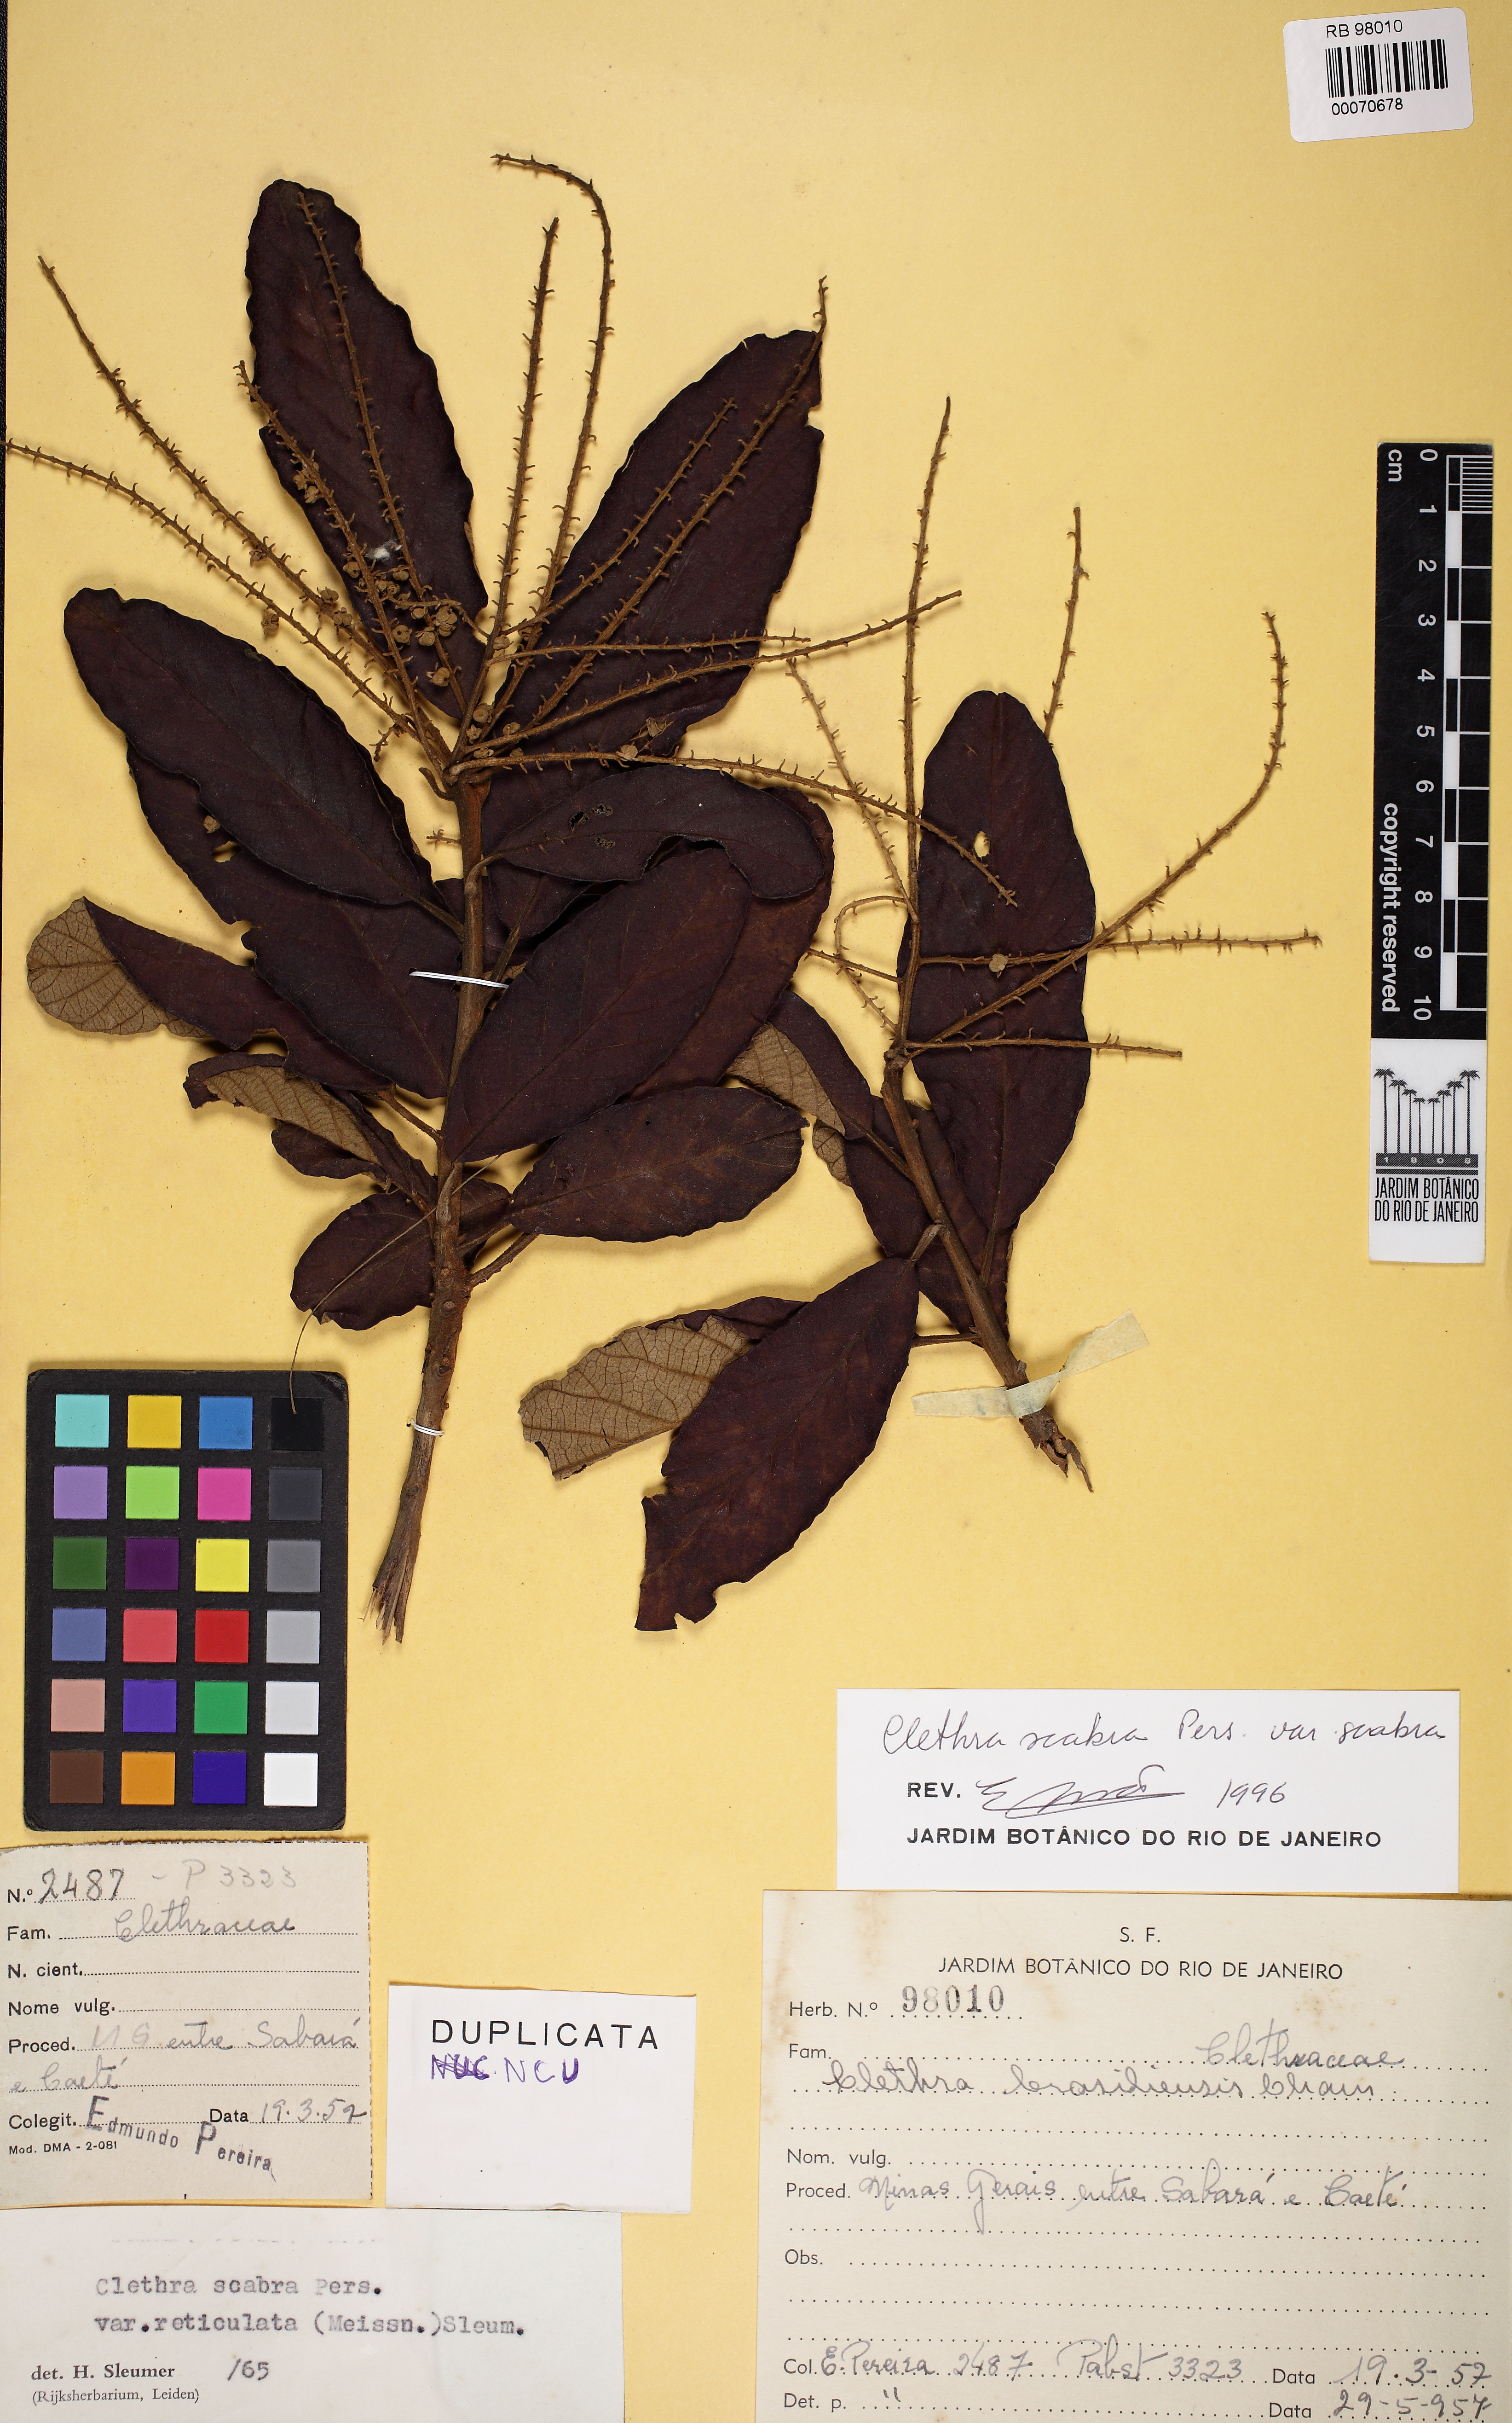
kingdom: Plantae
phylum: Tracheophyta
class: Magnoliopsida
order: Ericales
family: Clethraceae
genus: Clethra
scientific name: Clethra scabra
